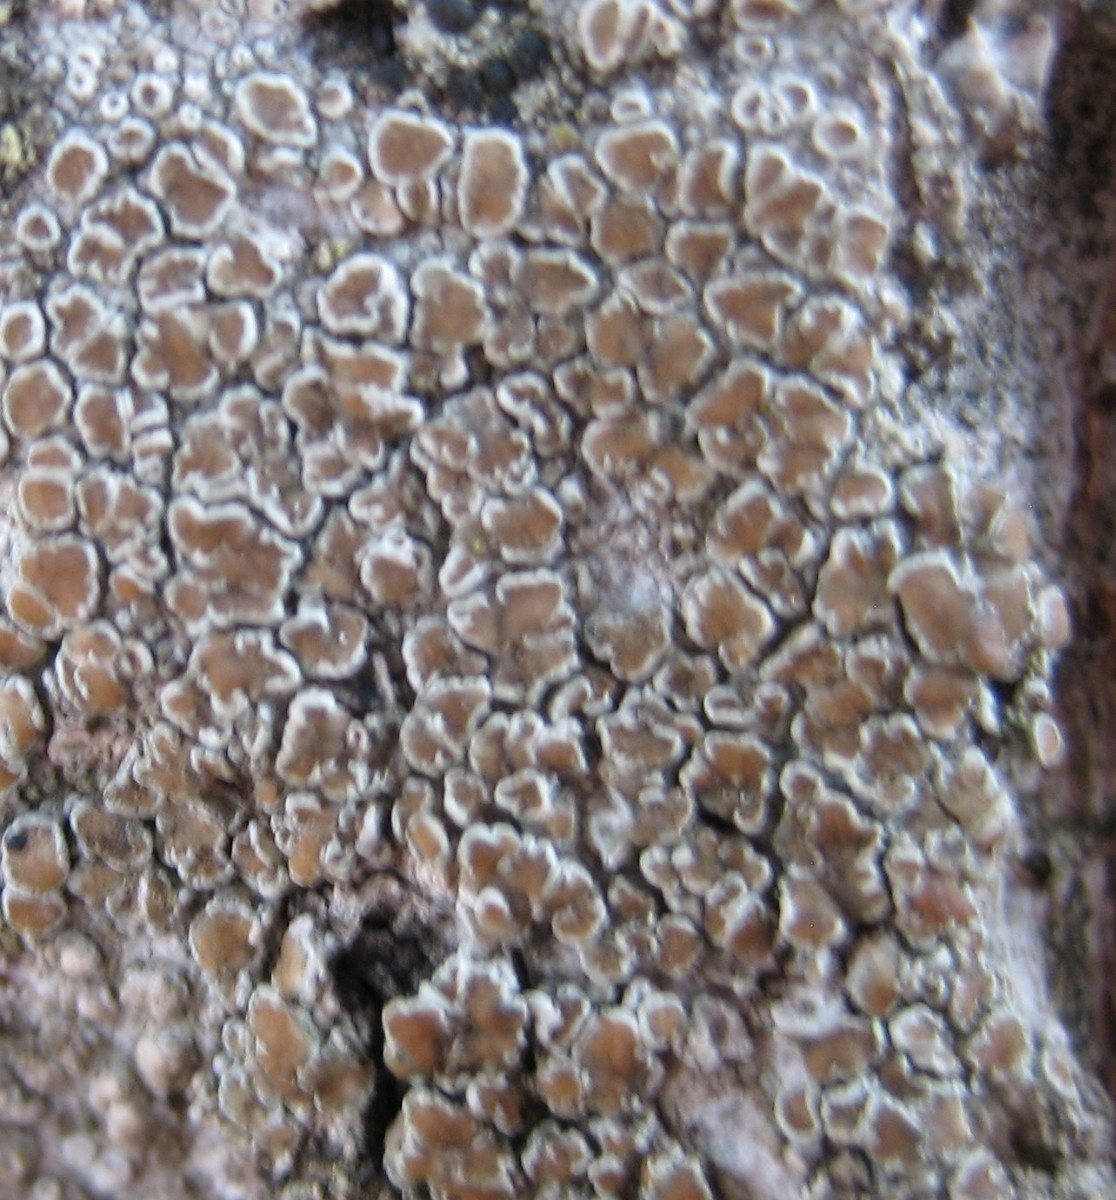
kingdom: Fungi
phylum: Ascomycota
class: Lecanoromycetes
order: Lecanorales
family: Lecanoraceae
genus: Lecanora
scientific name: Lecanora chlarotera
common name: brun kantskivelav
